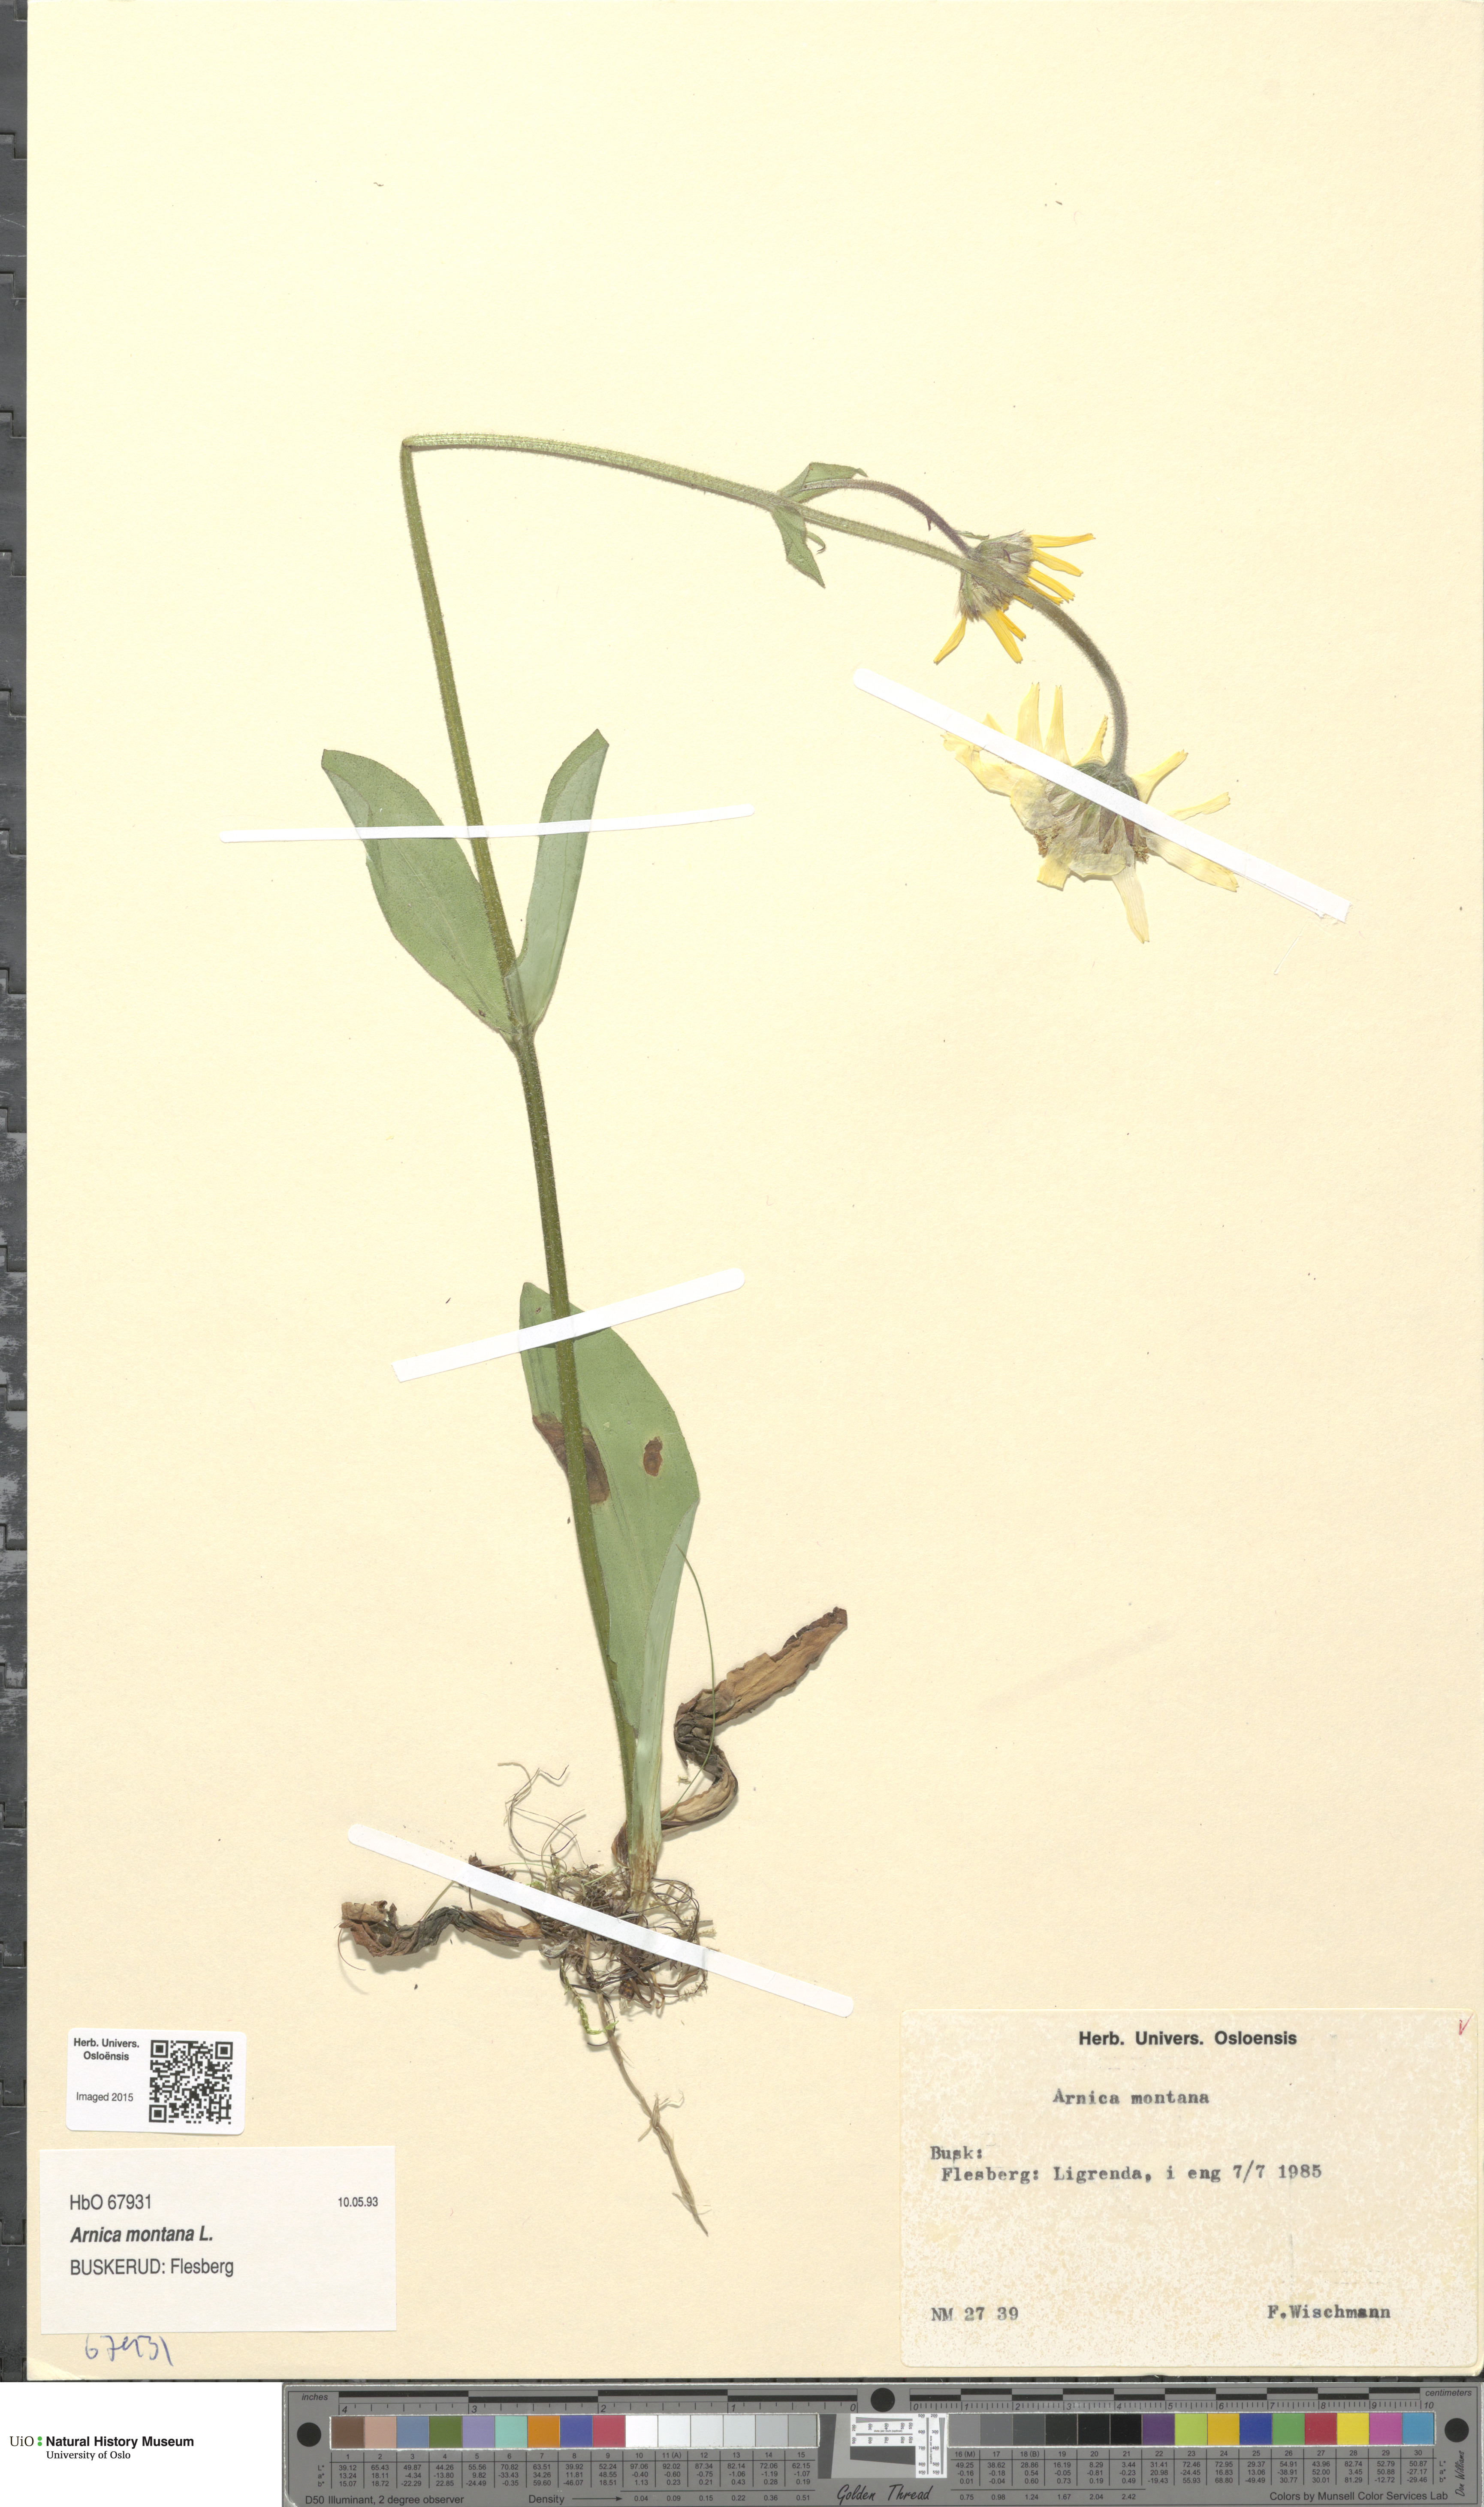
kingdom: Plantae
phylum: Tracheophyta
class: Magnoliopsida
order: Asterales
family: Asteraceae
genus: Arnica
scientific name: Arnica montana
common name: Leopard's bane
